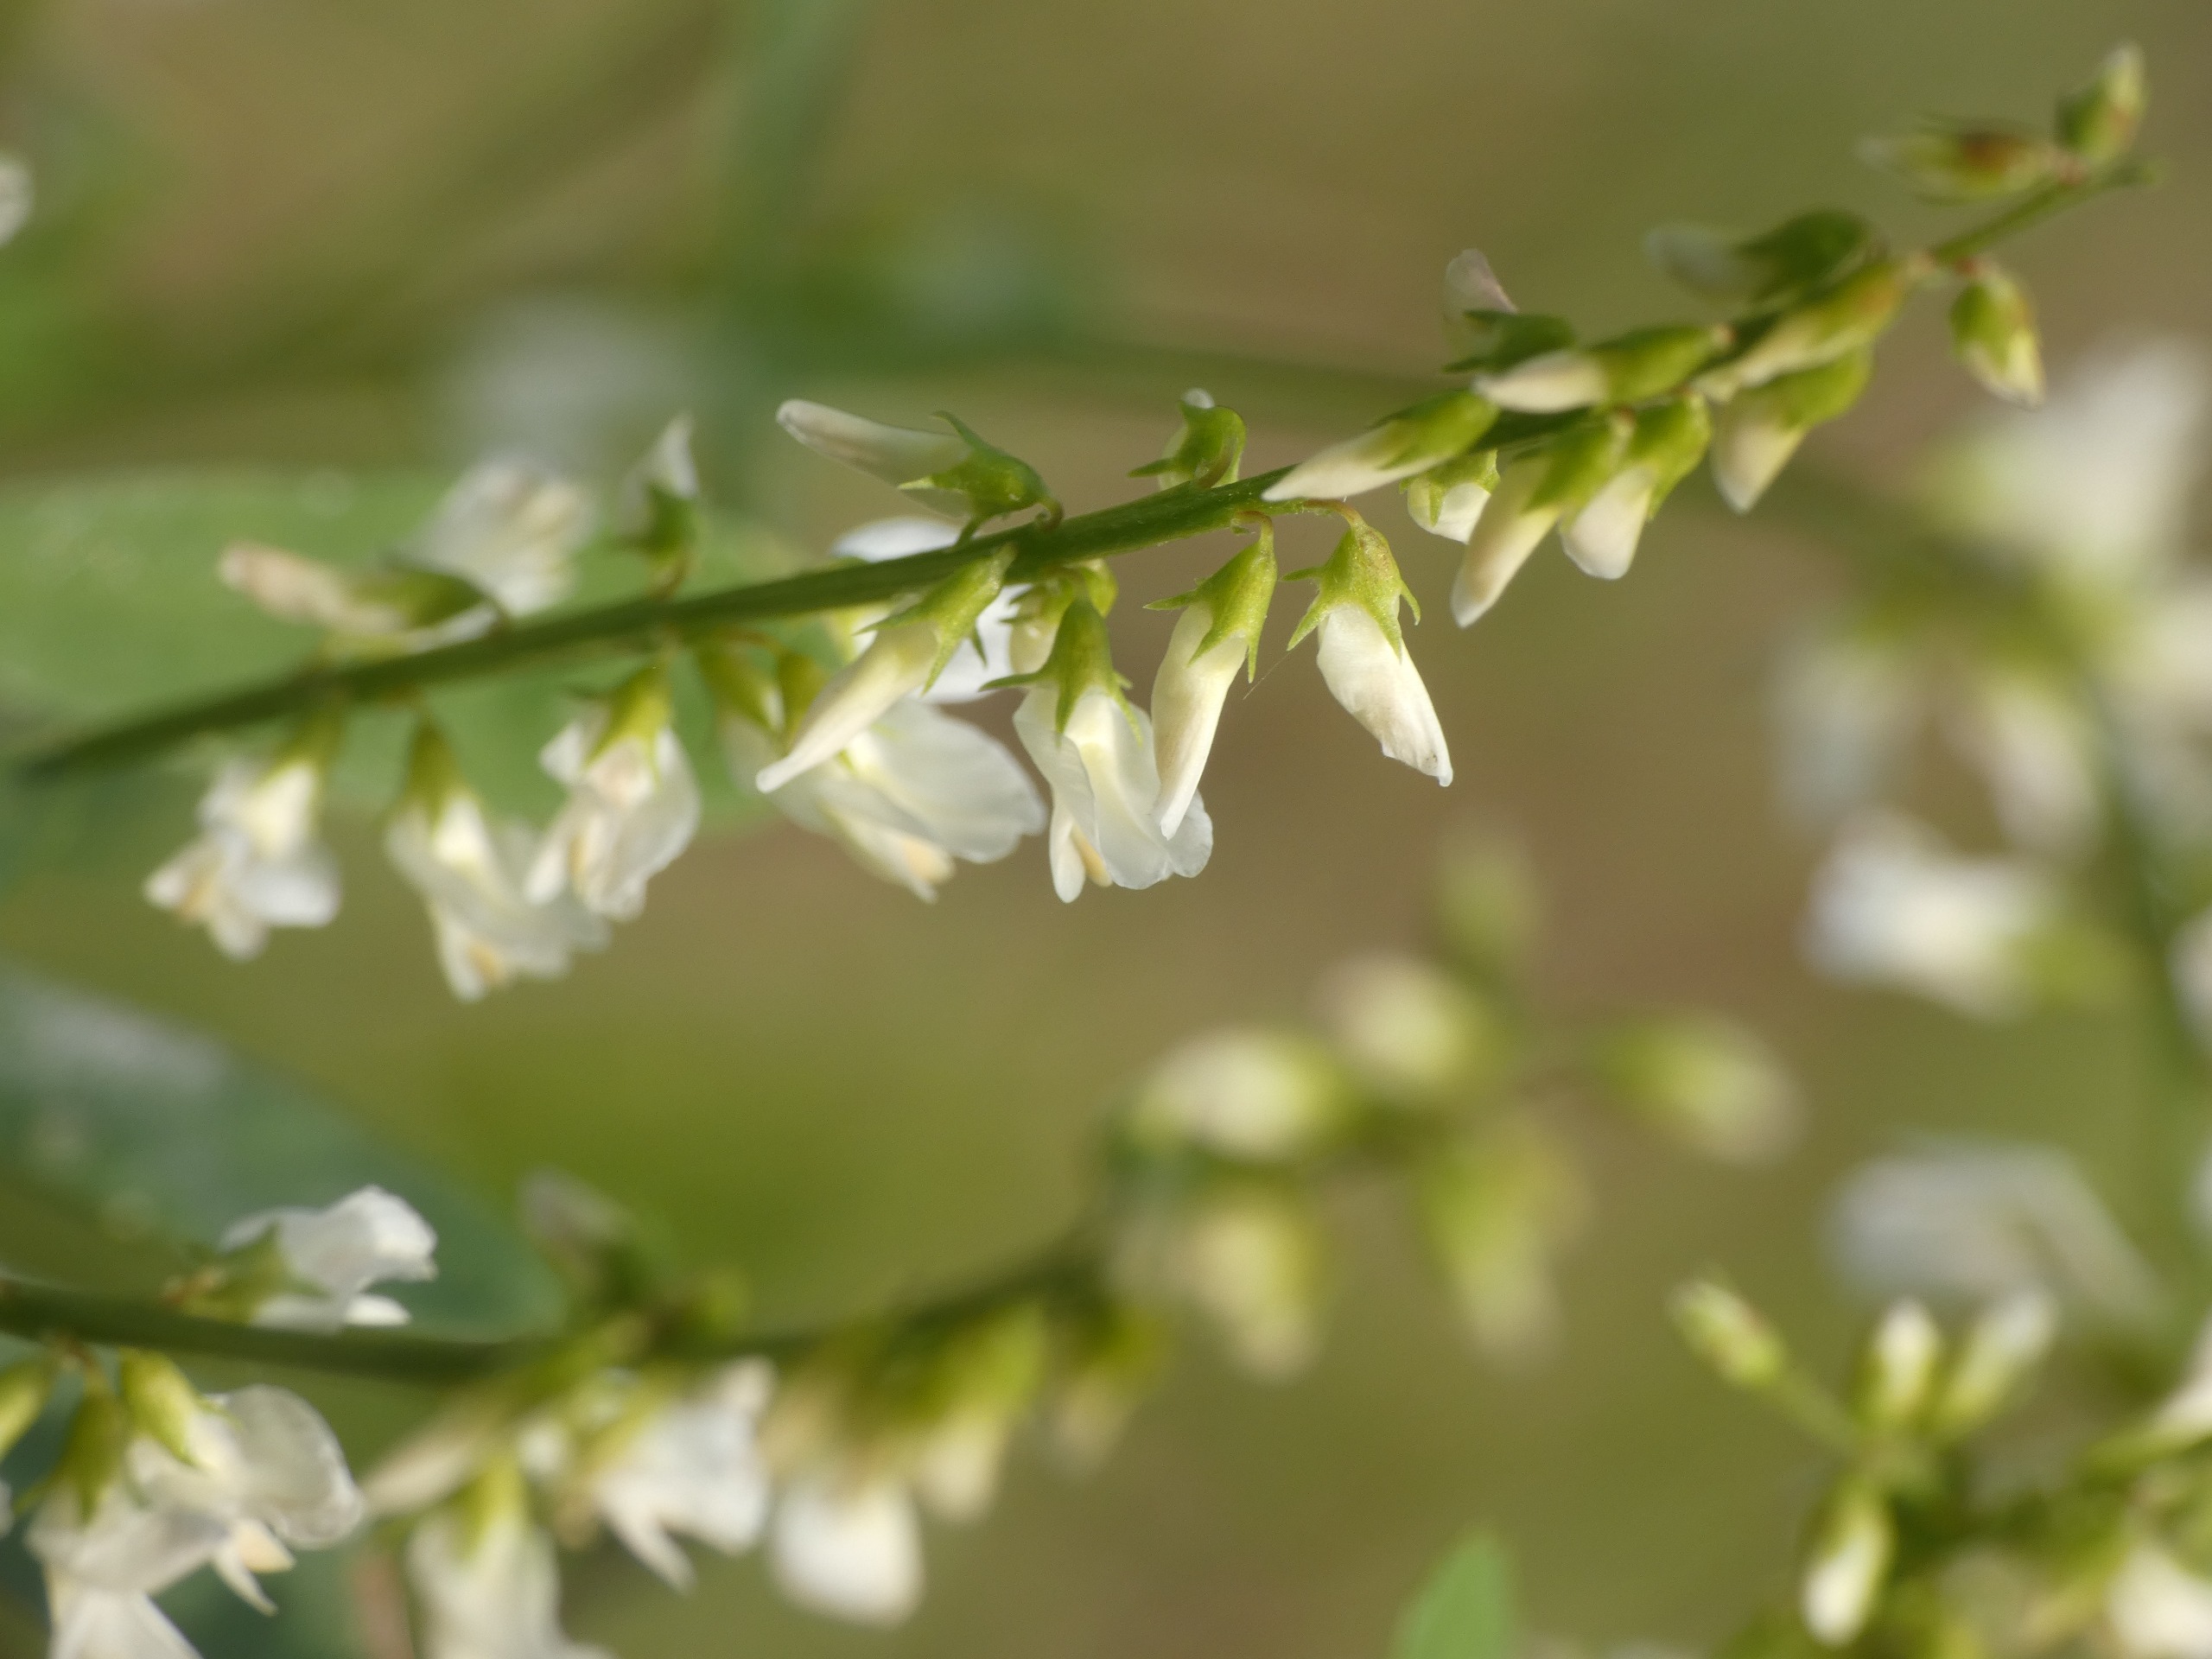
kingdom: Plantae
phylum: Tracheophyta
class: Magnoliopsida
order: Fabales
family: Fabaceae
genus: Melilotus
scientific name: Melilotus albus
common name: Hvid stenkløver
